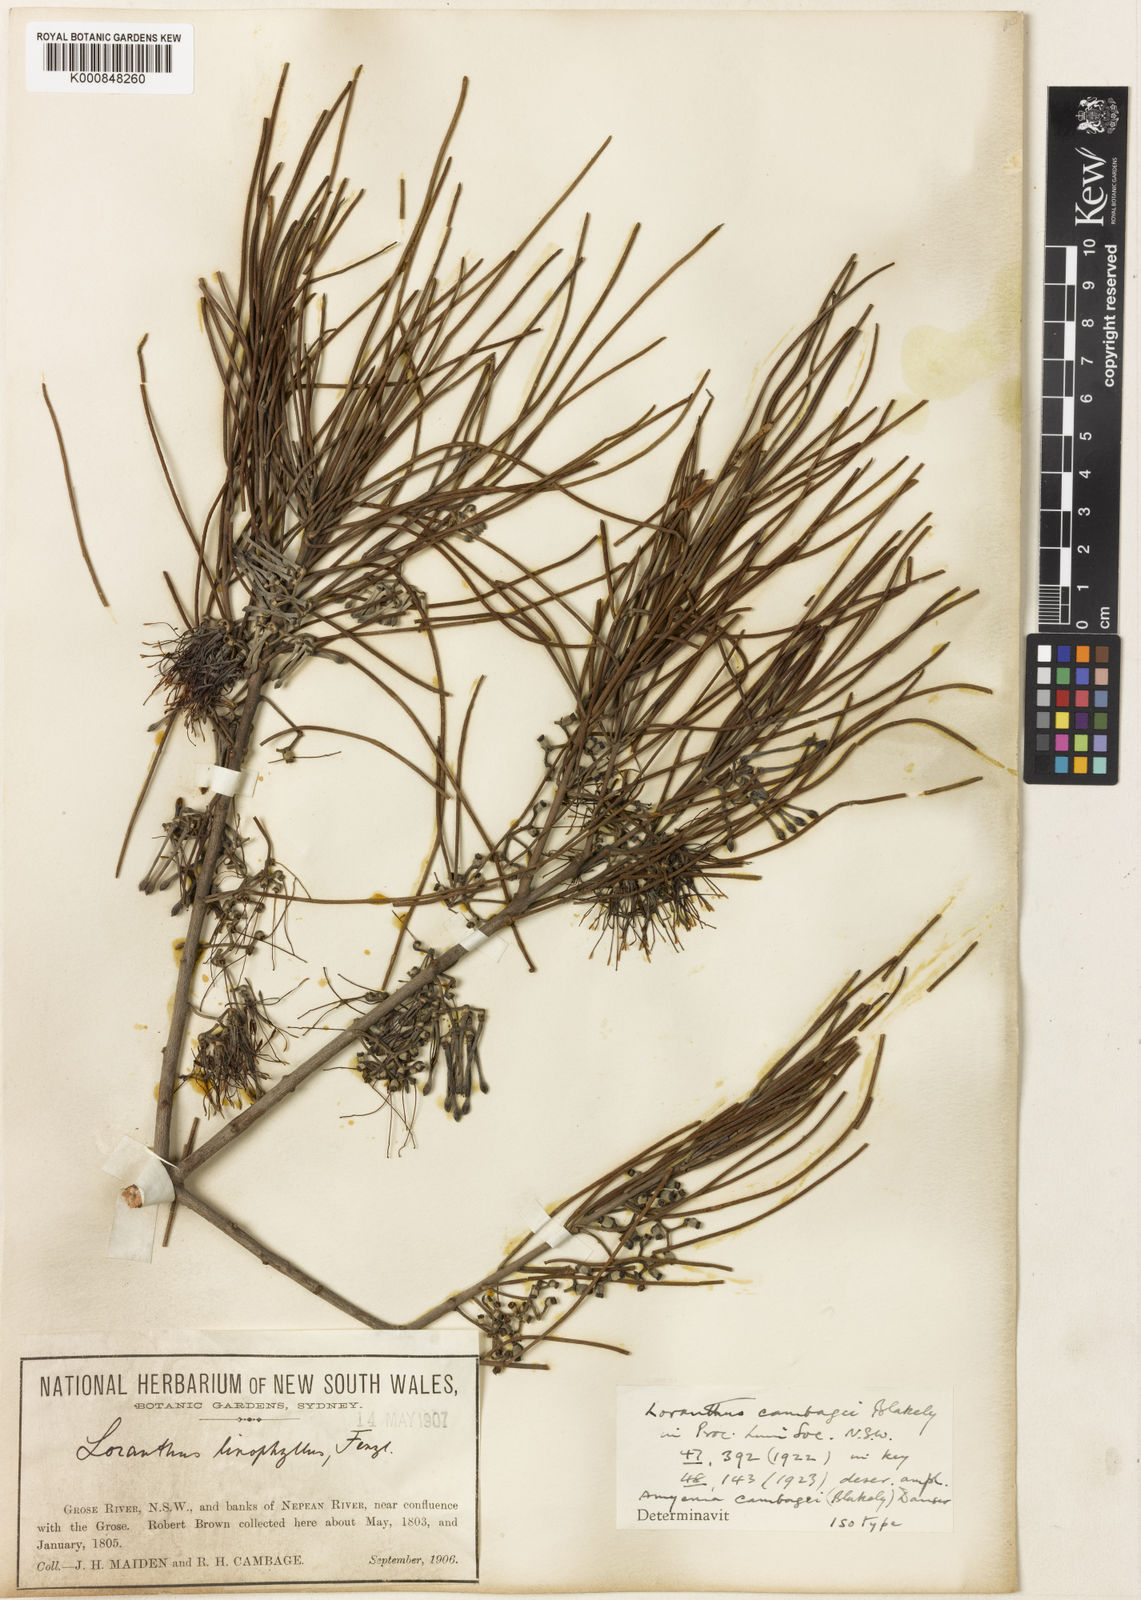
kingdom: Plantae
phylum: Tracheophyta
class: Magnoliopsida
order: Santalales
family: Loranthaceae
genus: Amyema
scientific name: Amyema cambagei
